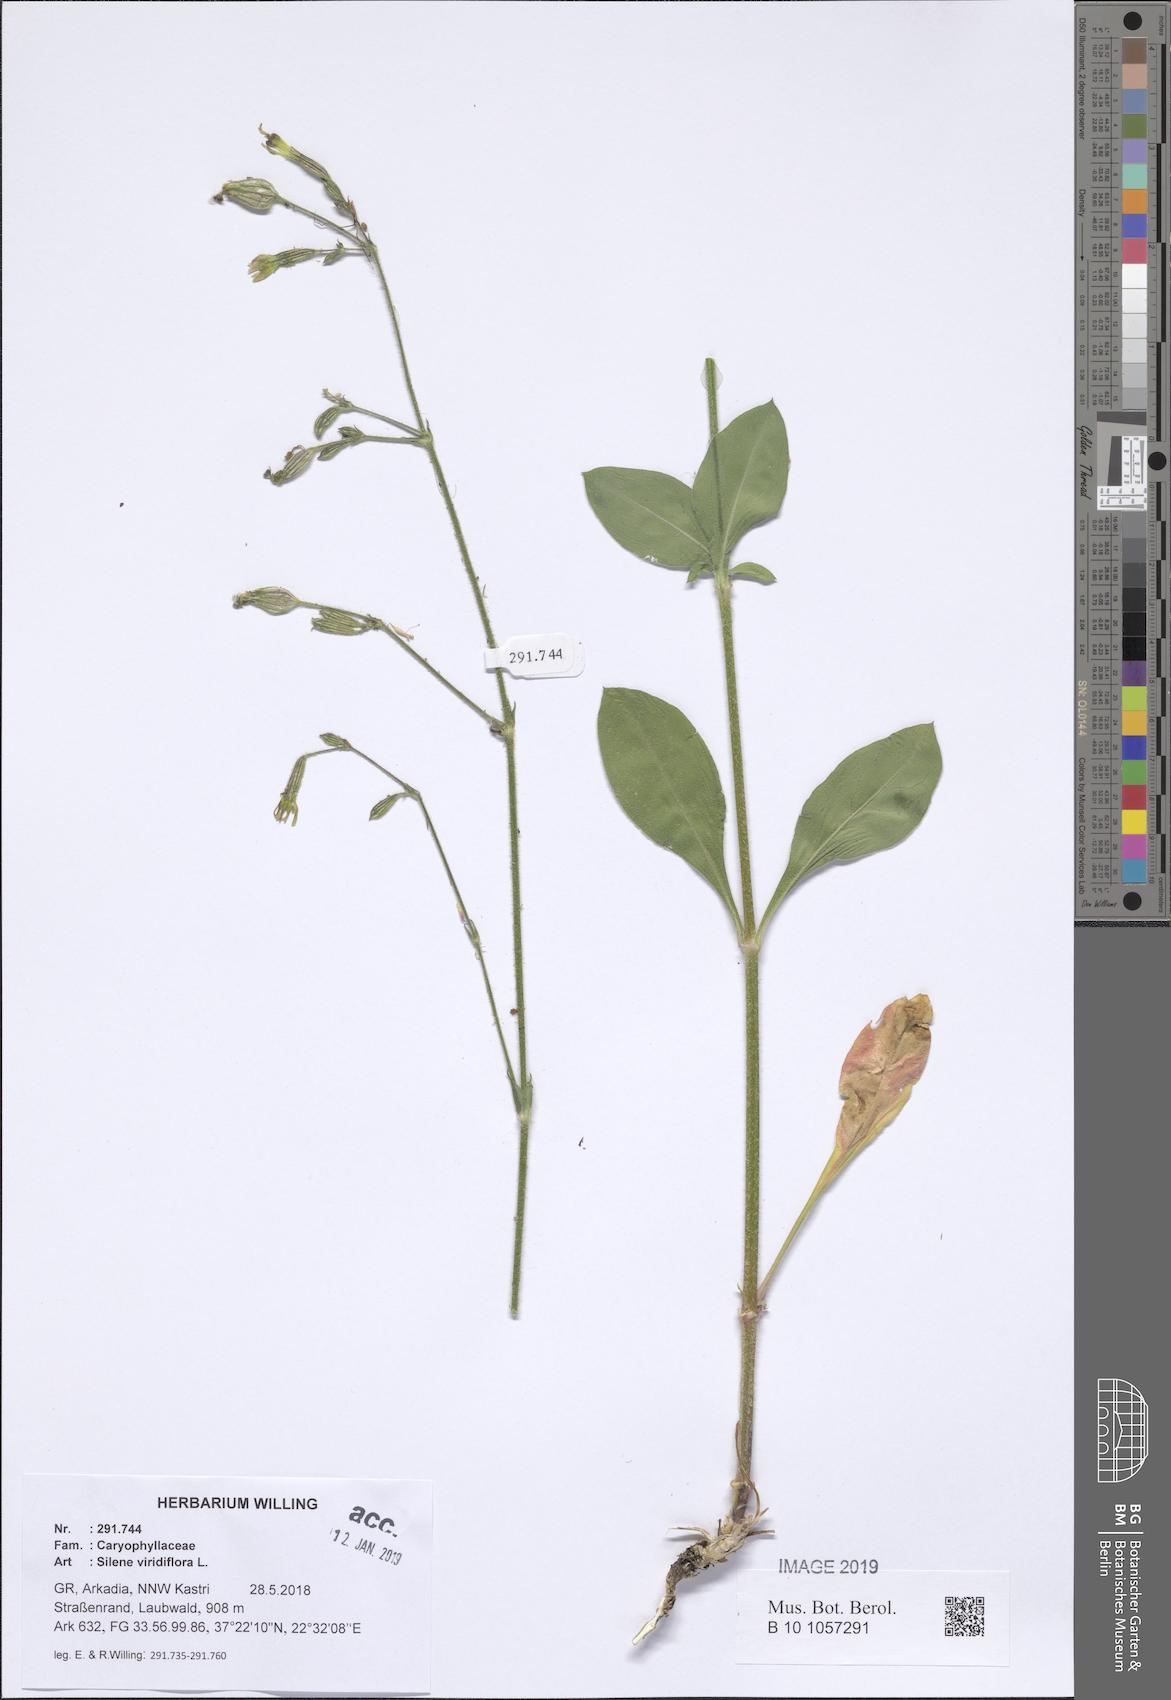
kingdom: Plantae
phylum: Tracheophyta
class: Magnoliopsida
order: Caryophyllales
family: Caryophyllaceae
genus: Silene
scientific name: Silene viridiflora
